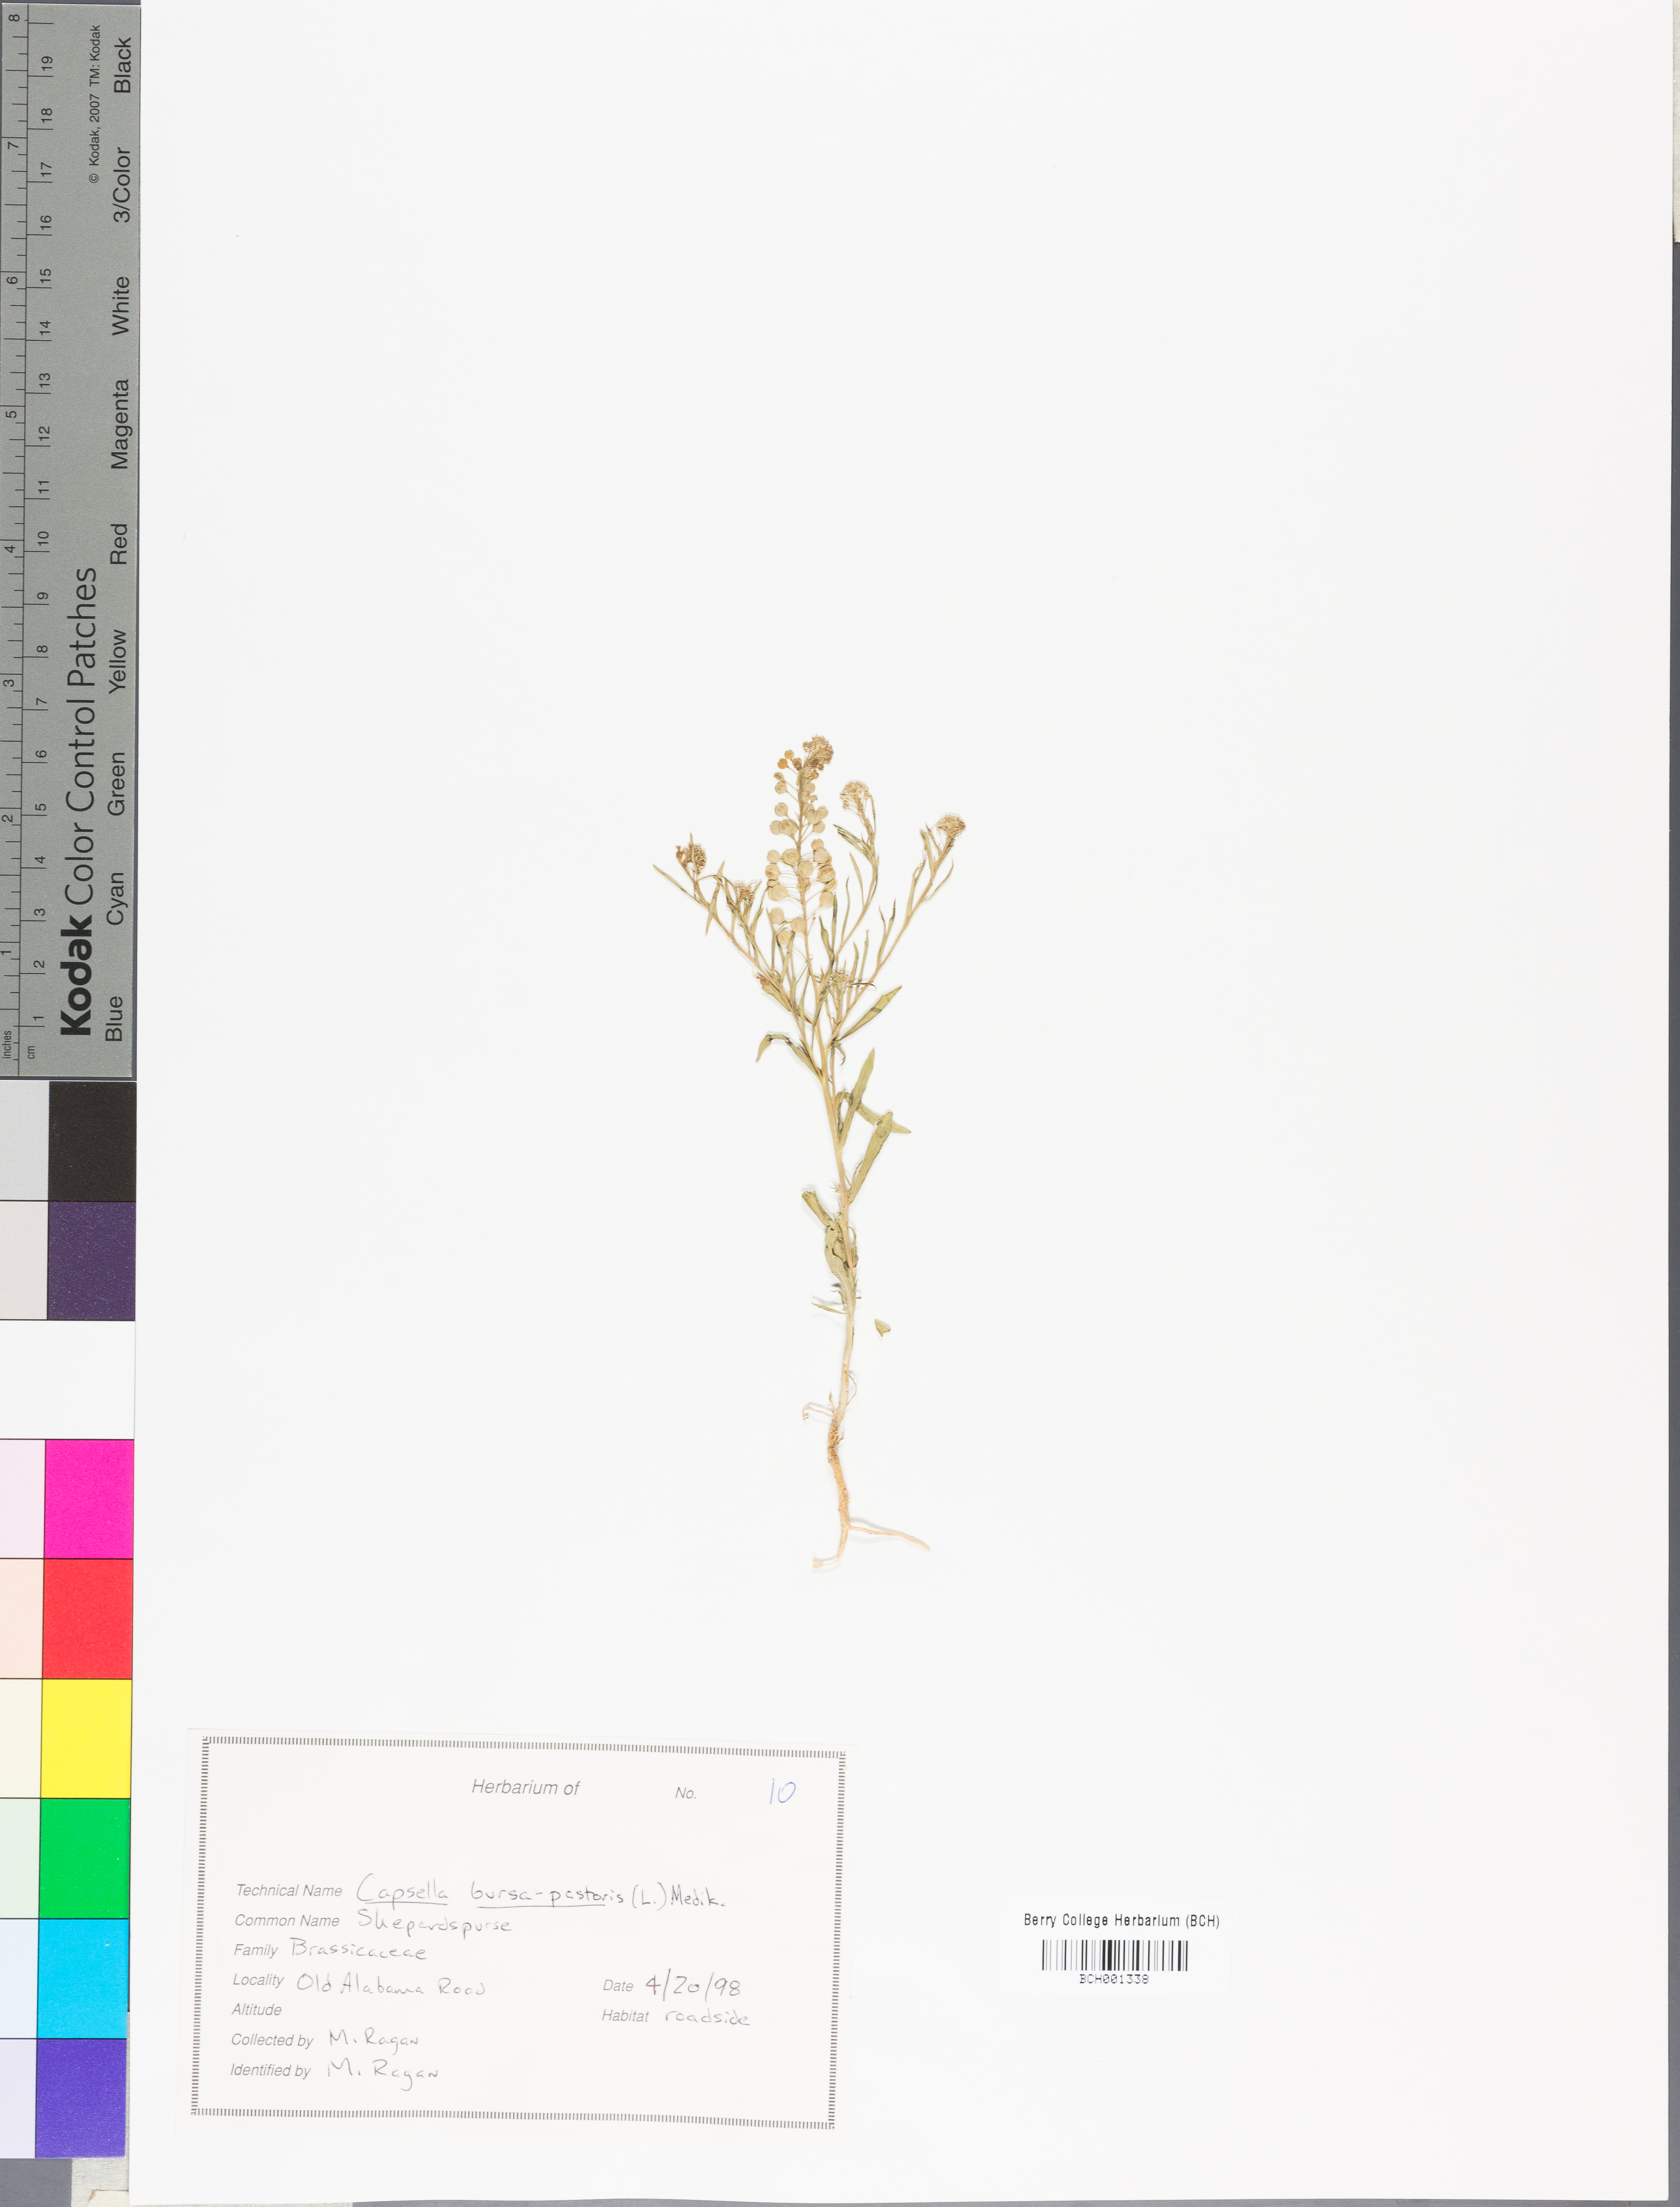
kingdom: Plantae
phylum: Tracheophyta
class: Magnoliopsida
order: Brassicales
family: Brassicaceae
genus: Capsella
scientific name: Capsella bursa-pastoris
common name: Shepherd's purse
